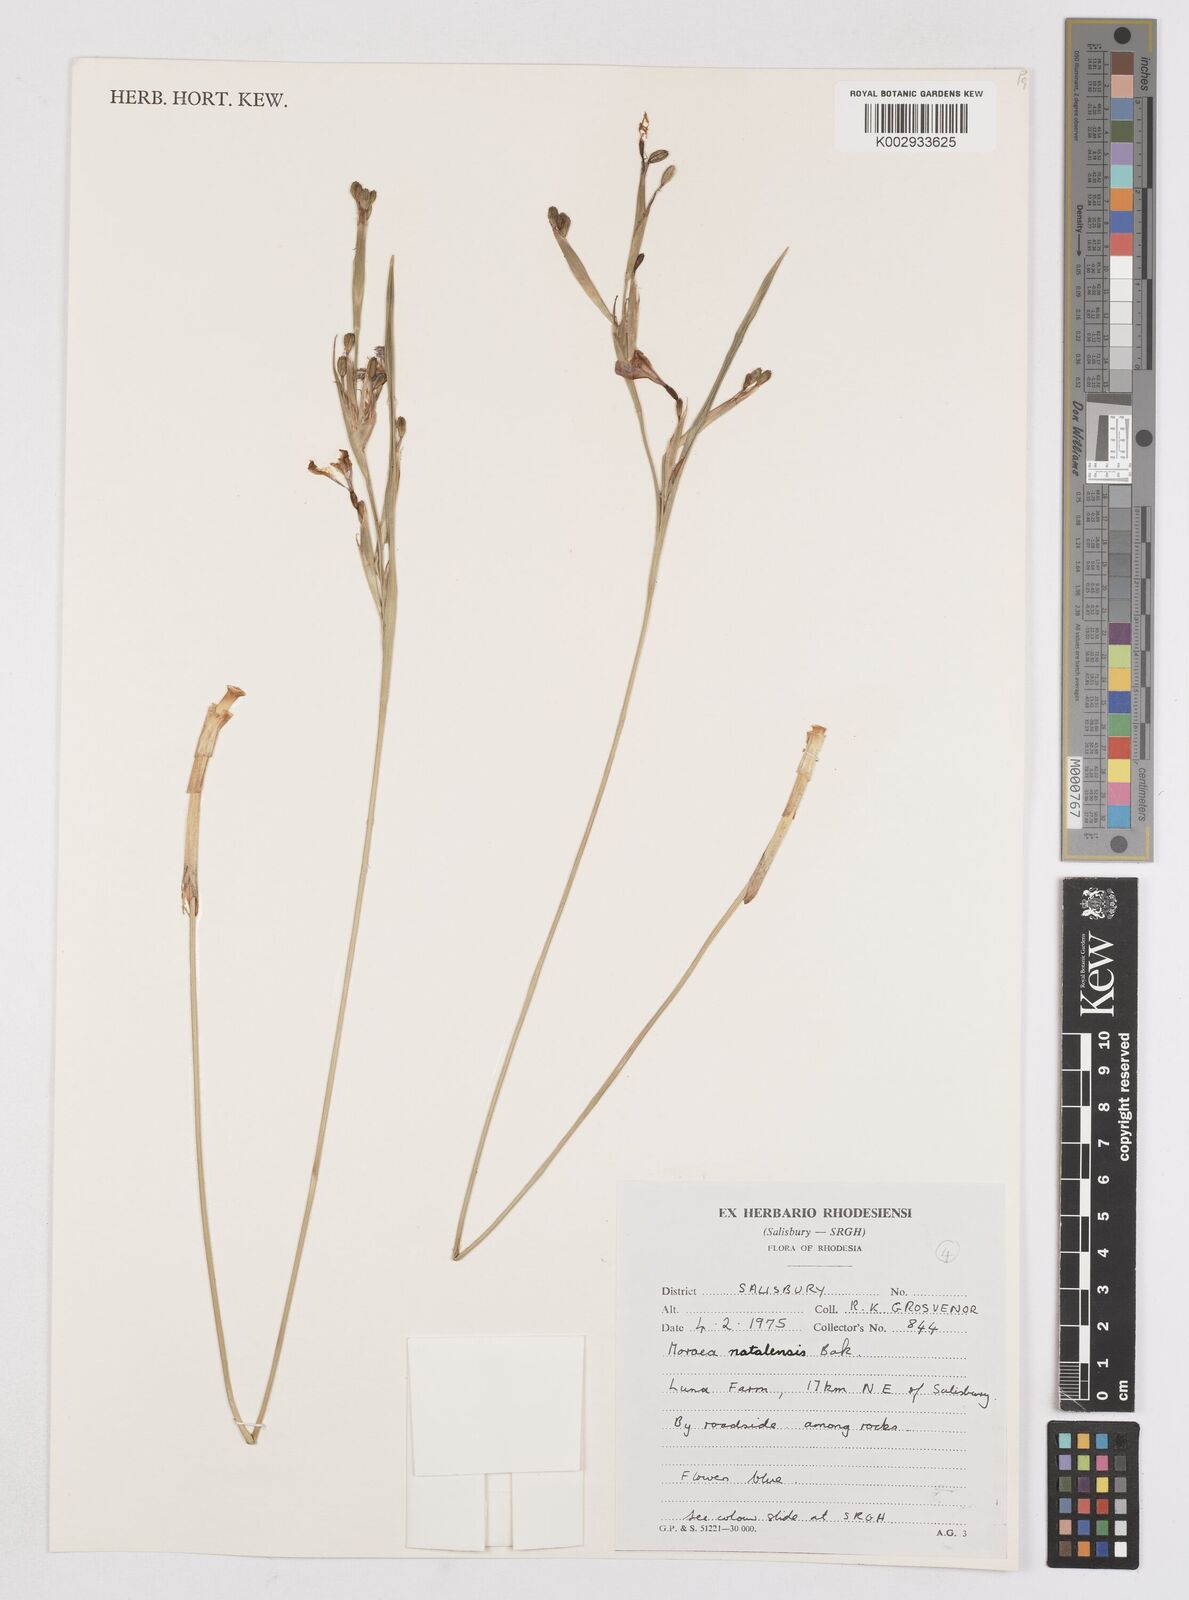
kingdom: Plantae
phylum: Tracheophyta
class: Liliopsida
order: Asparagales
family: Iridaceae
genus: Moraea
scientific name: Moraea natalensis
